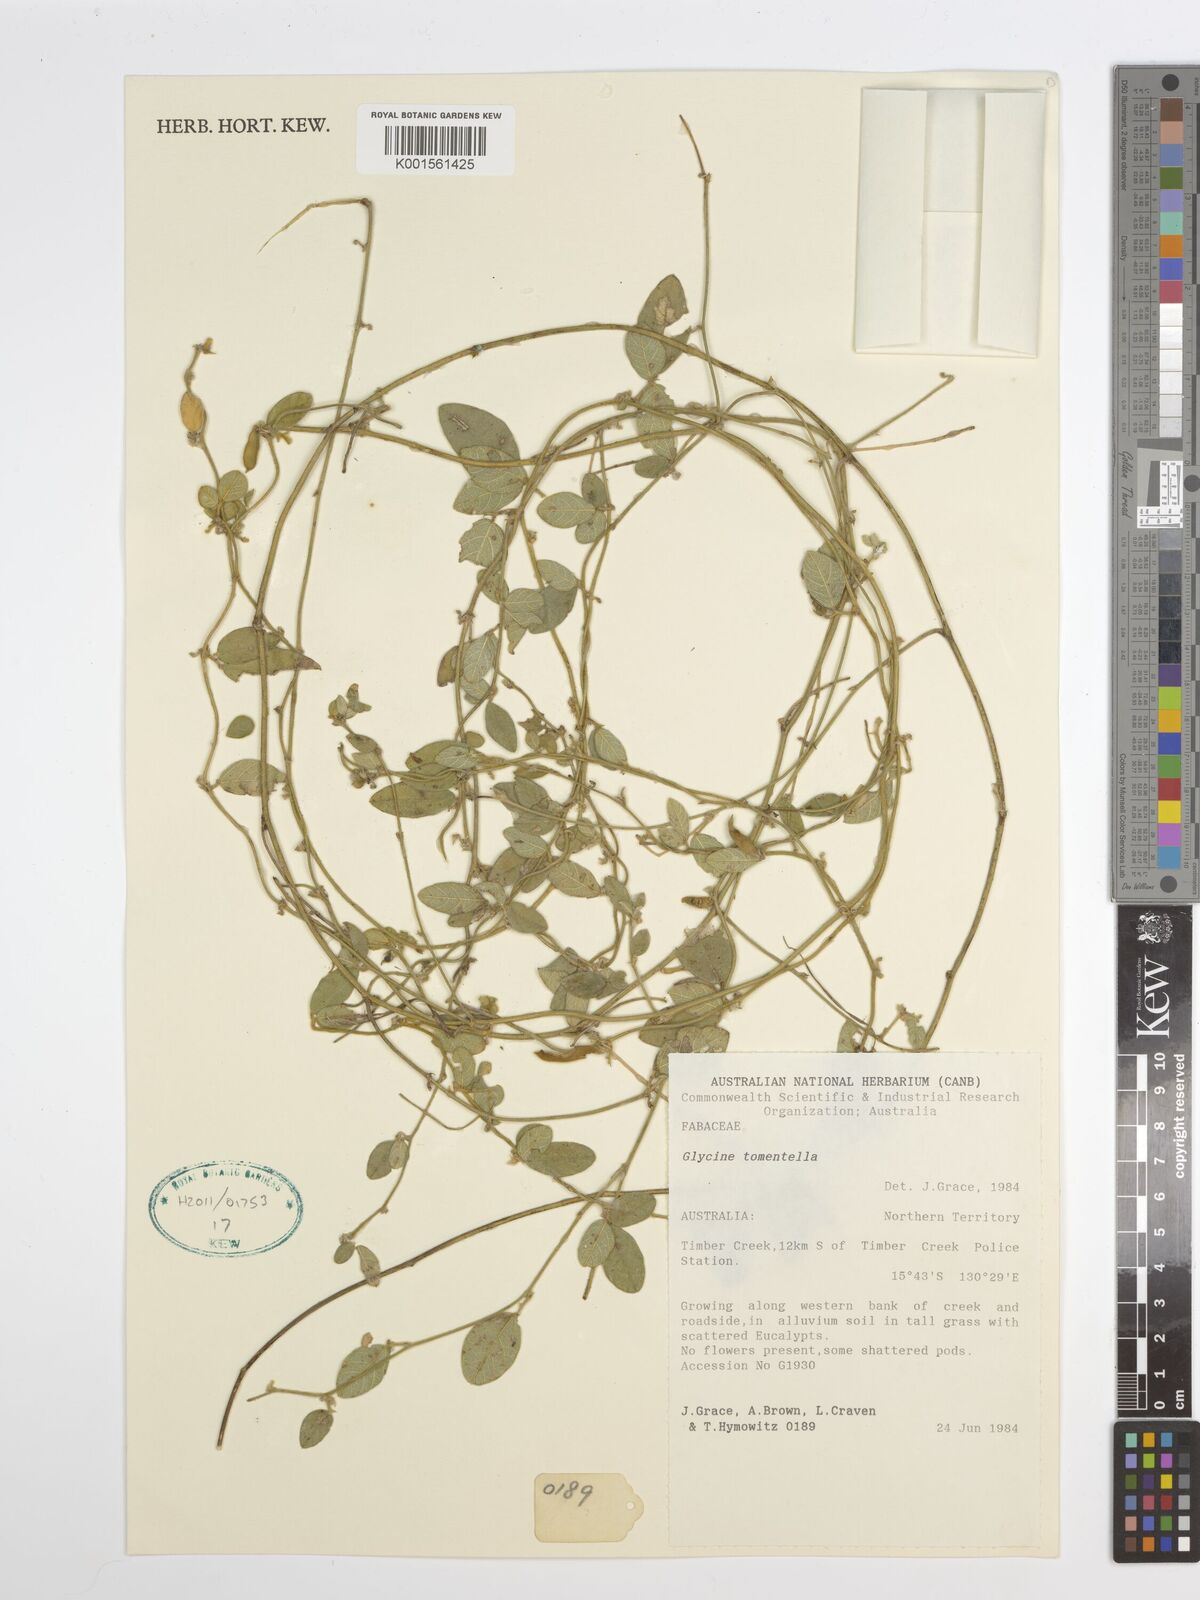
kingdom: Plantae
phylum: Tracheophyta
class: Magnoliopsida
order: Fabales
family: Fabaceae
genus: Glycine
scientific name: Glycine tomentella
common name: Hairy glycine
